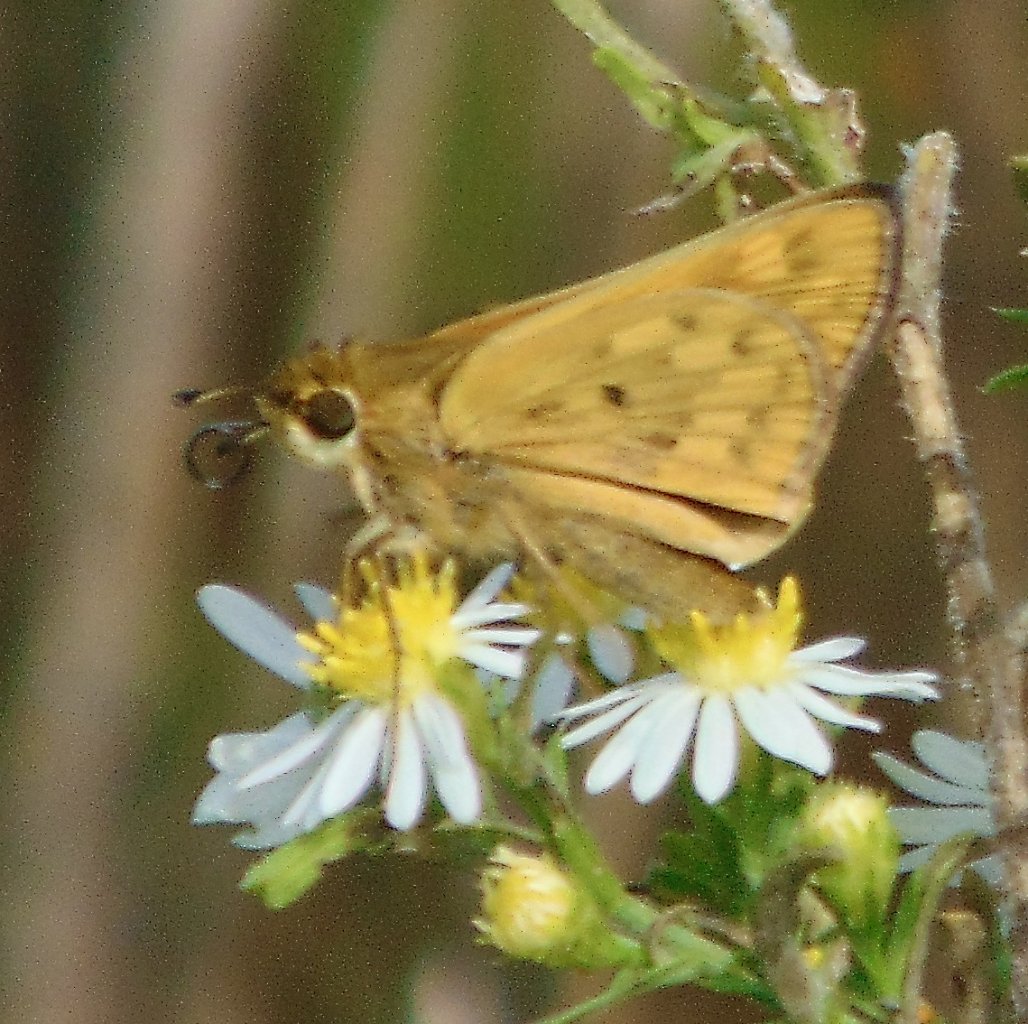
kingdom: Animalia
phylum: Arthropoda
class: Insecta
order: Lepidoptera
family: Hesperiidae
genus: Hylephila
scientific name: Hylephila phyleus
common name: Fiery Skipper
